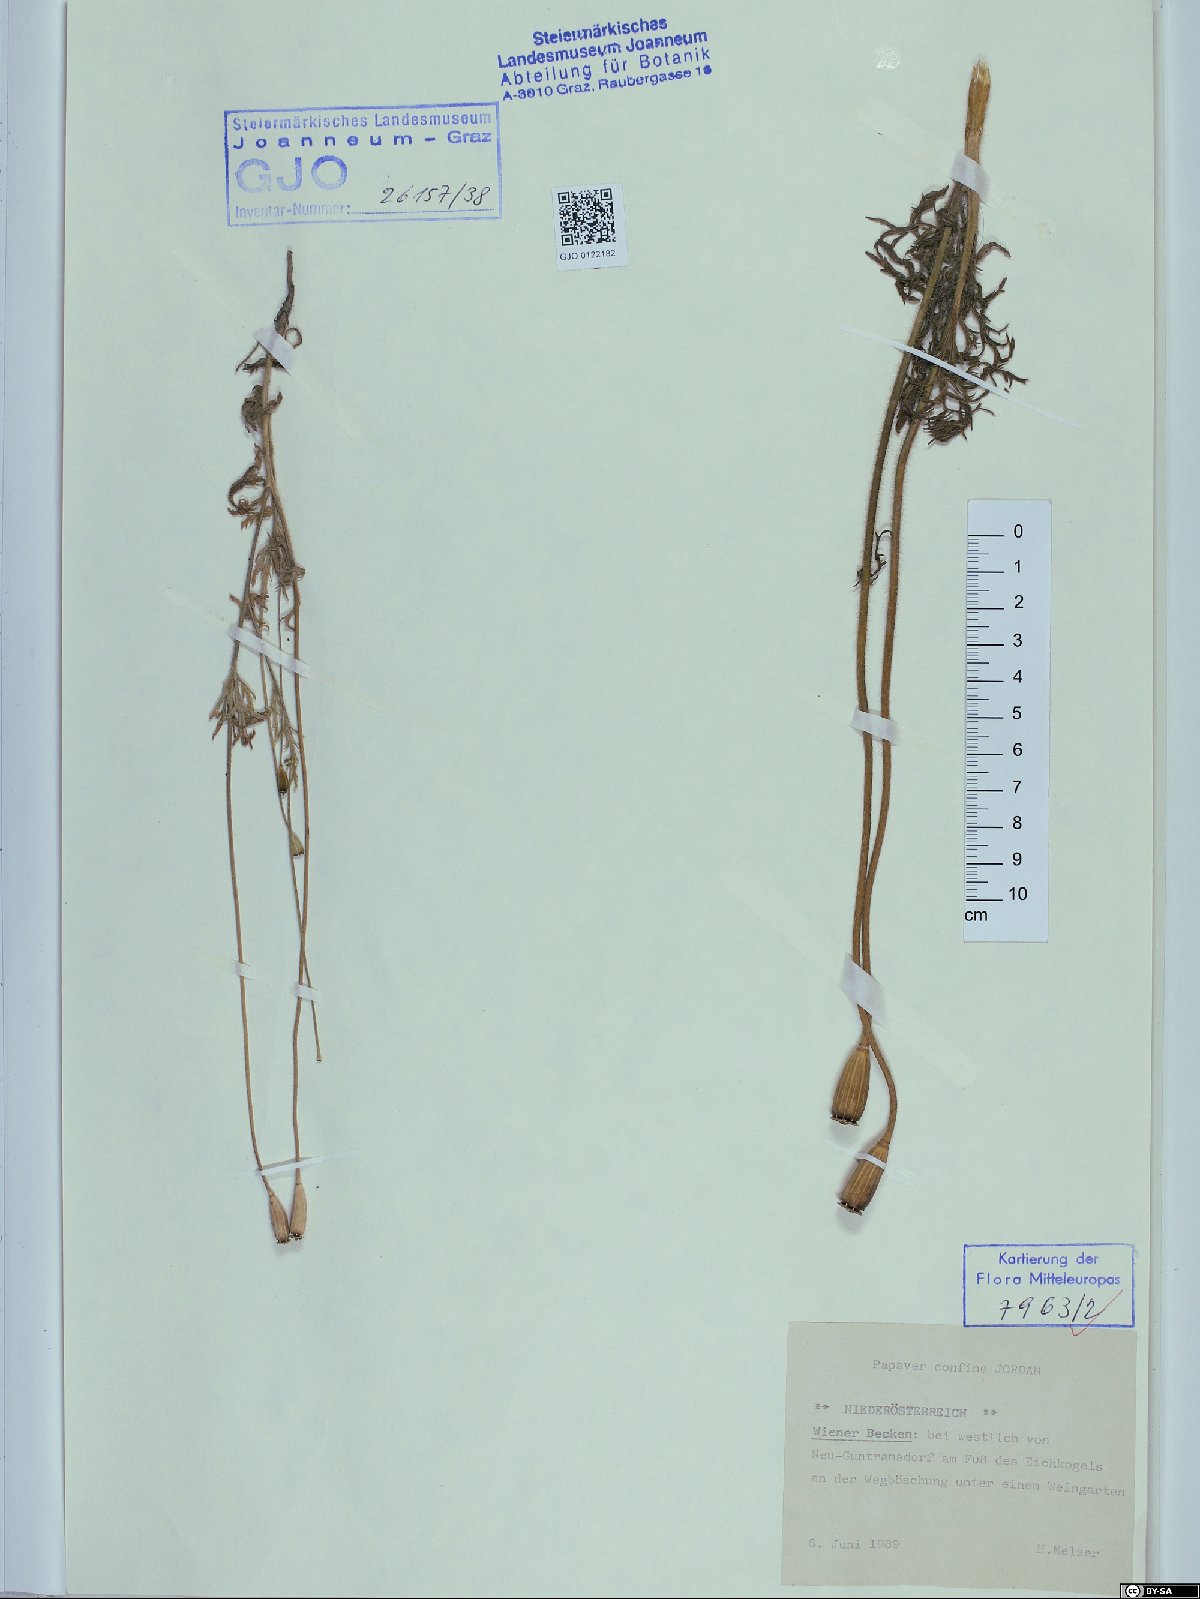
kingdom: Plantae
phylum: Tracheophyta
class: Magnoliopsida
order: Ranunculales
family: Papaveraceae
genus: Papaver
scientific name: Papaver confine
